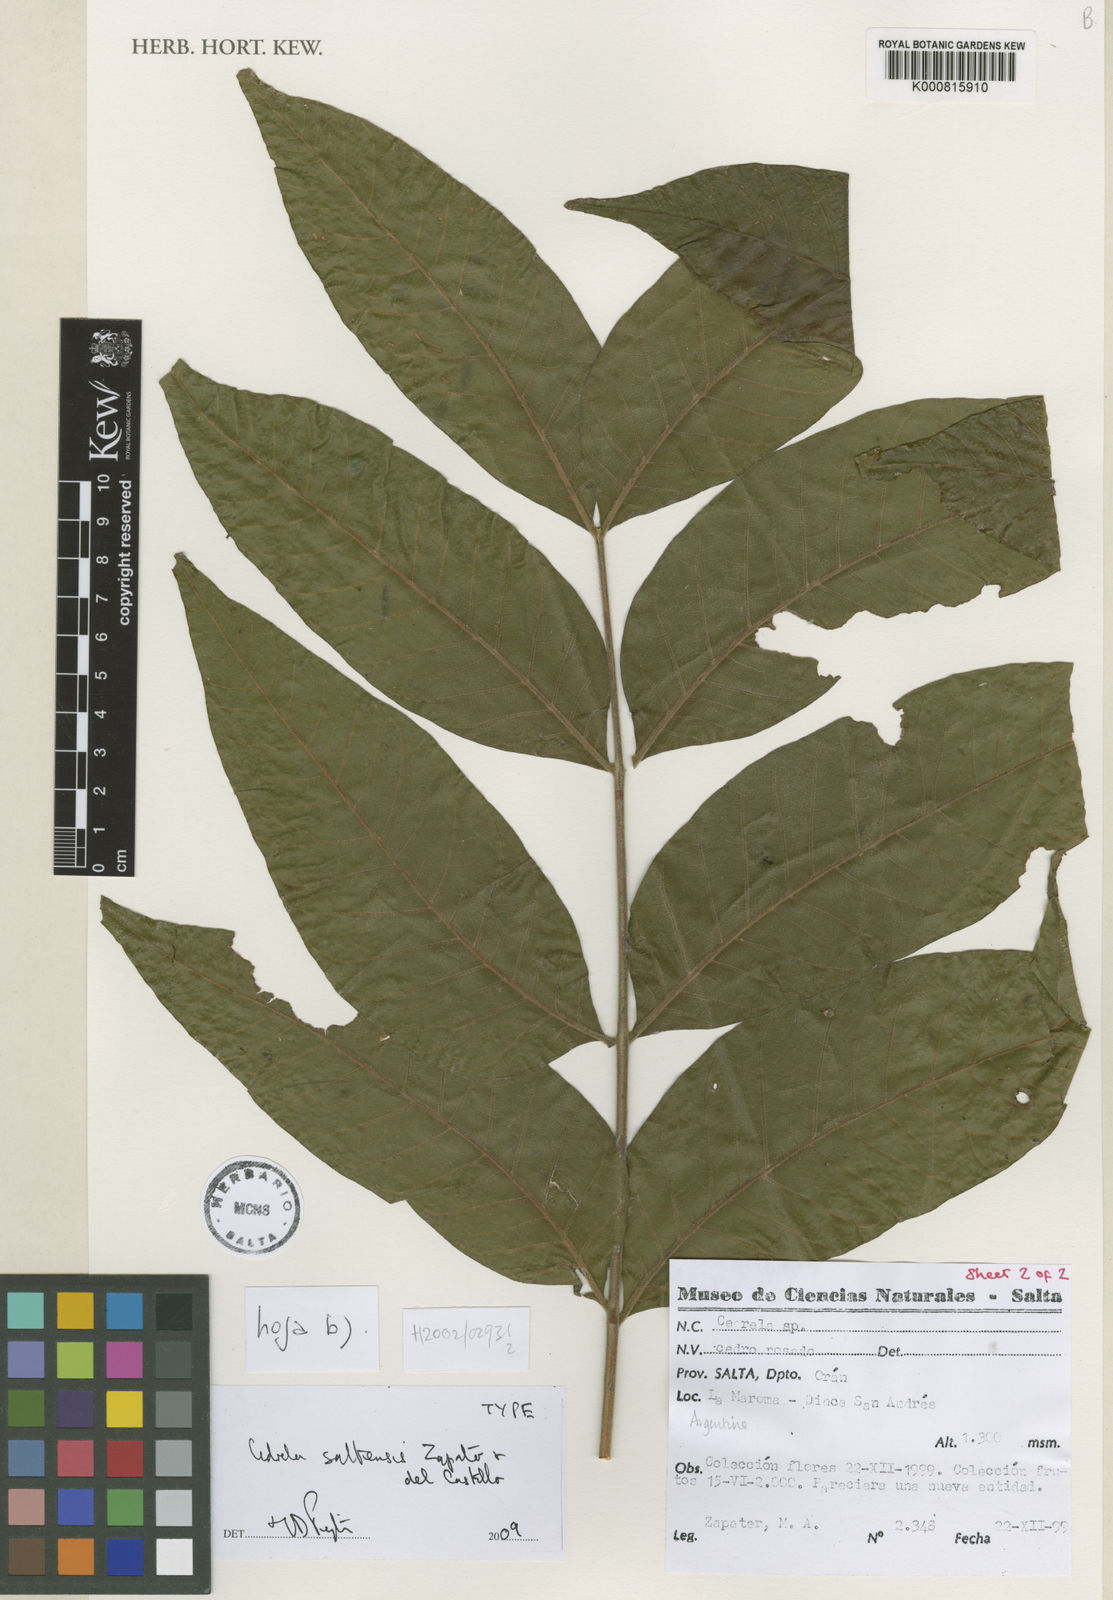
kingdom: Plantae
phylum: Tracheophyta
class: Magnoliopsida
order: Sapindales
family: Meliaceae
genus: Cedrela
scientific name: Cedrela saltensis
